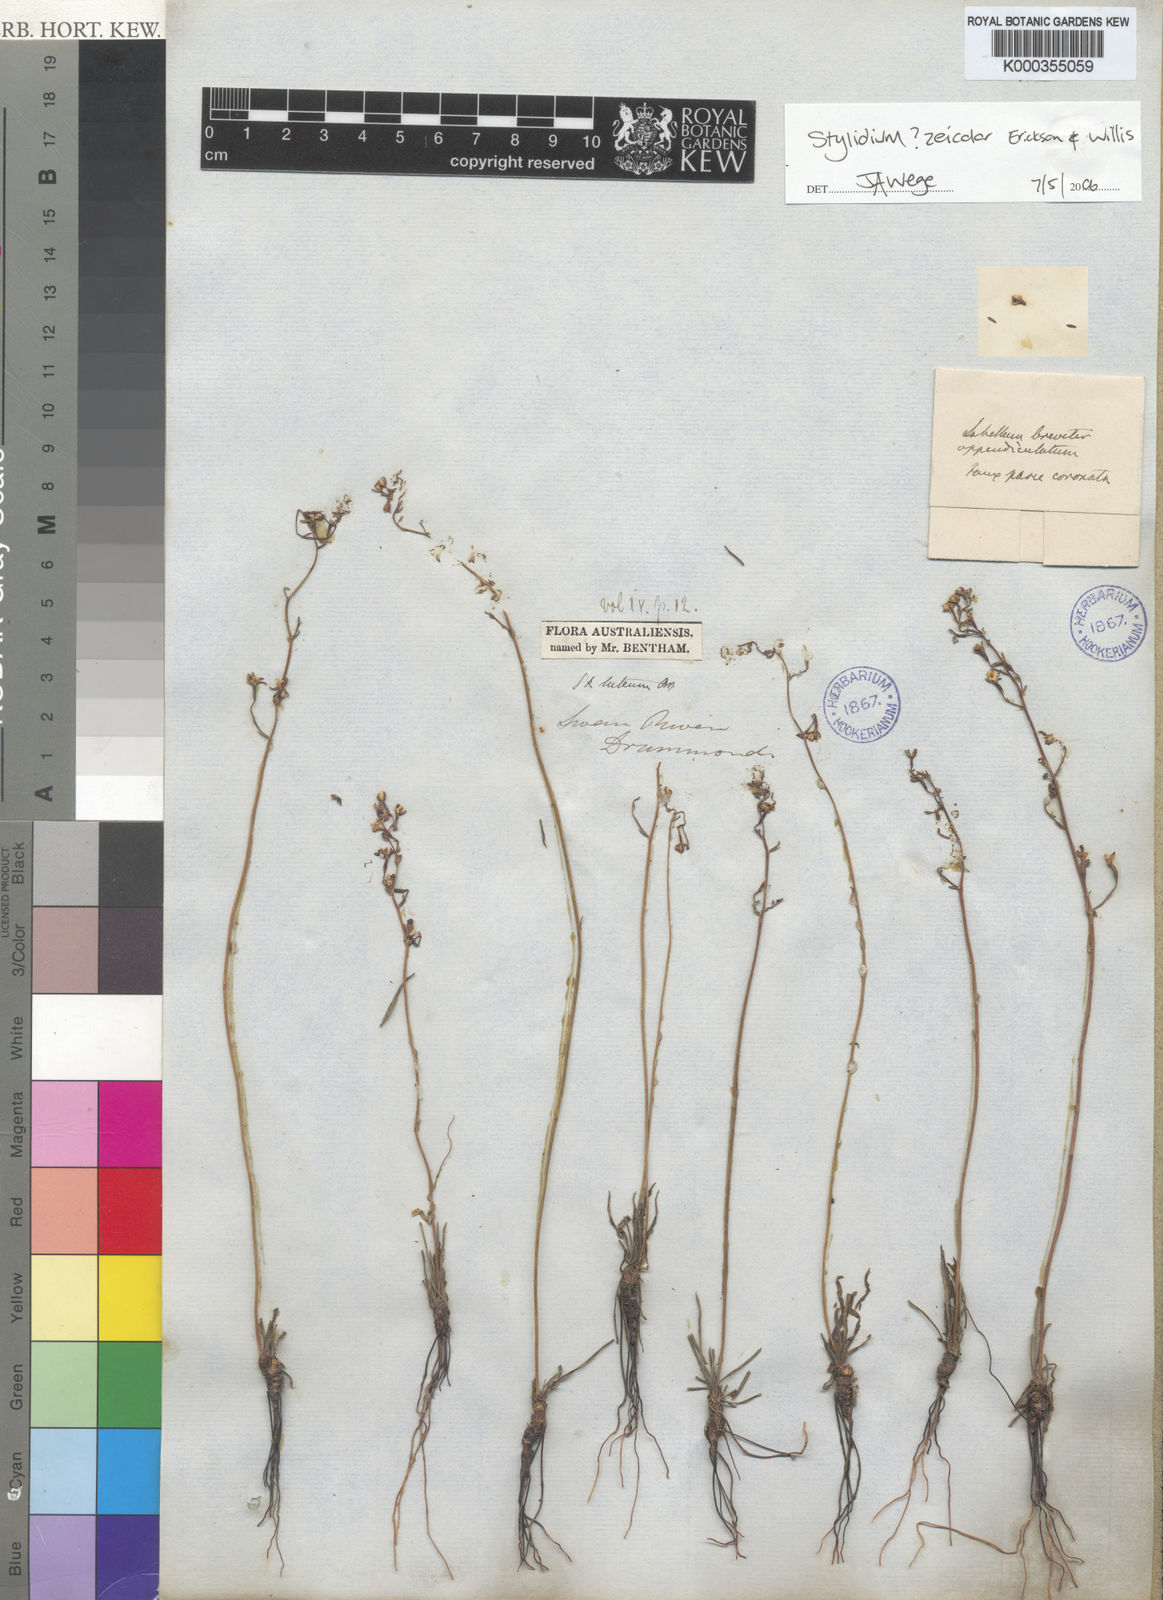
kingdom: Plantae
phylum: Tracheophyta
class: Magnoliopsida
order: Asterales
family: Stylidiaceae
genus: Stylidium
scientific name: Stylidium
